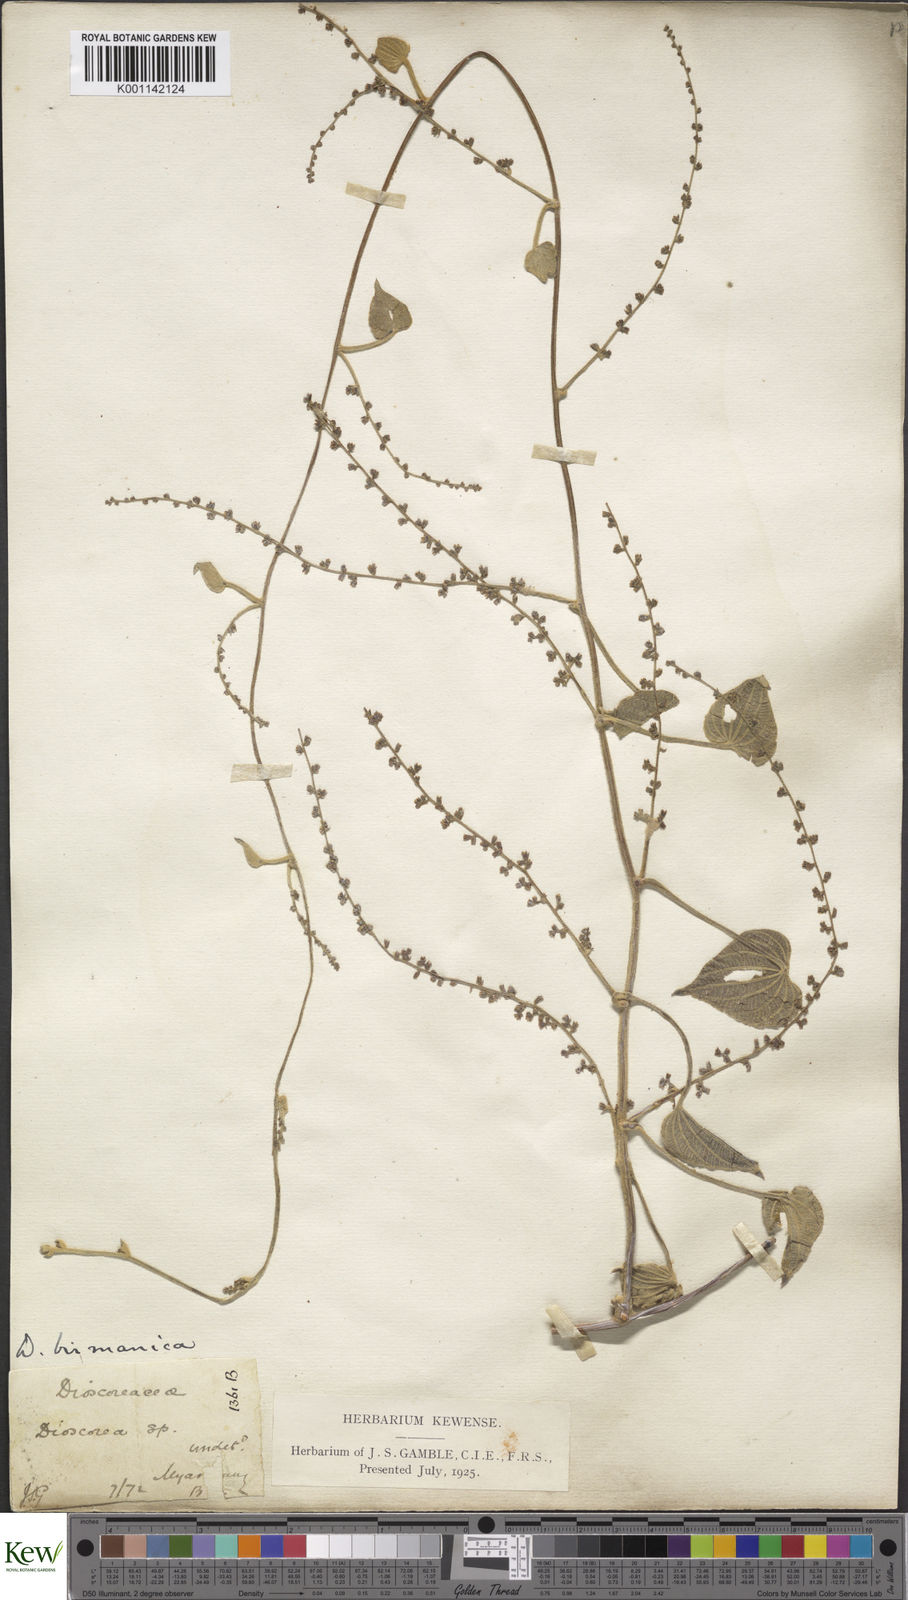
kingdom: Plantae
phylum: Tracheophyta
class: Liliopsida
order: Dioscoreales
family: Dioscoreaceae
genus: Dioscorea
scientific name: Dioscorea birmanica
